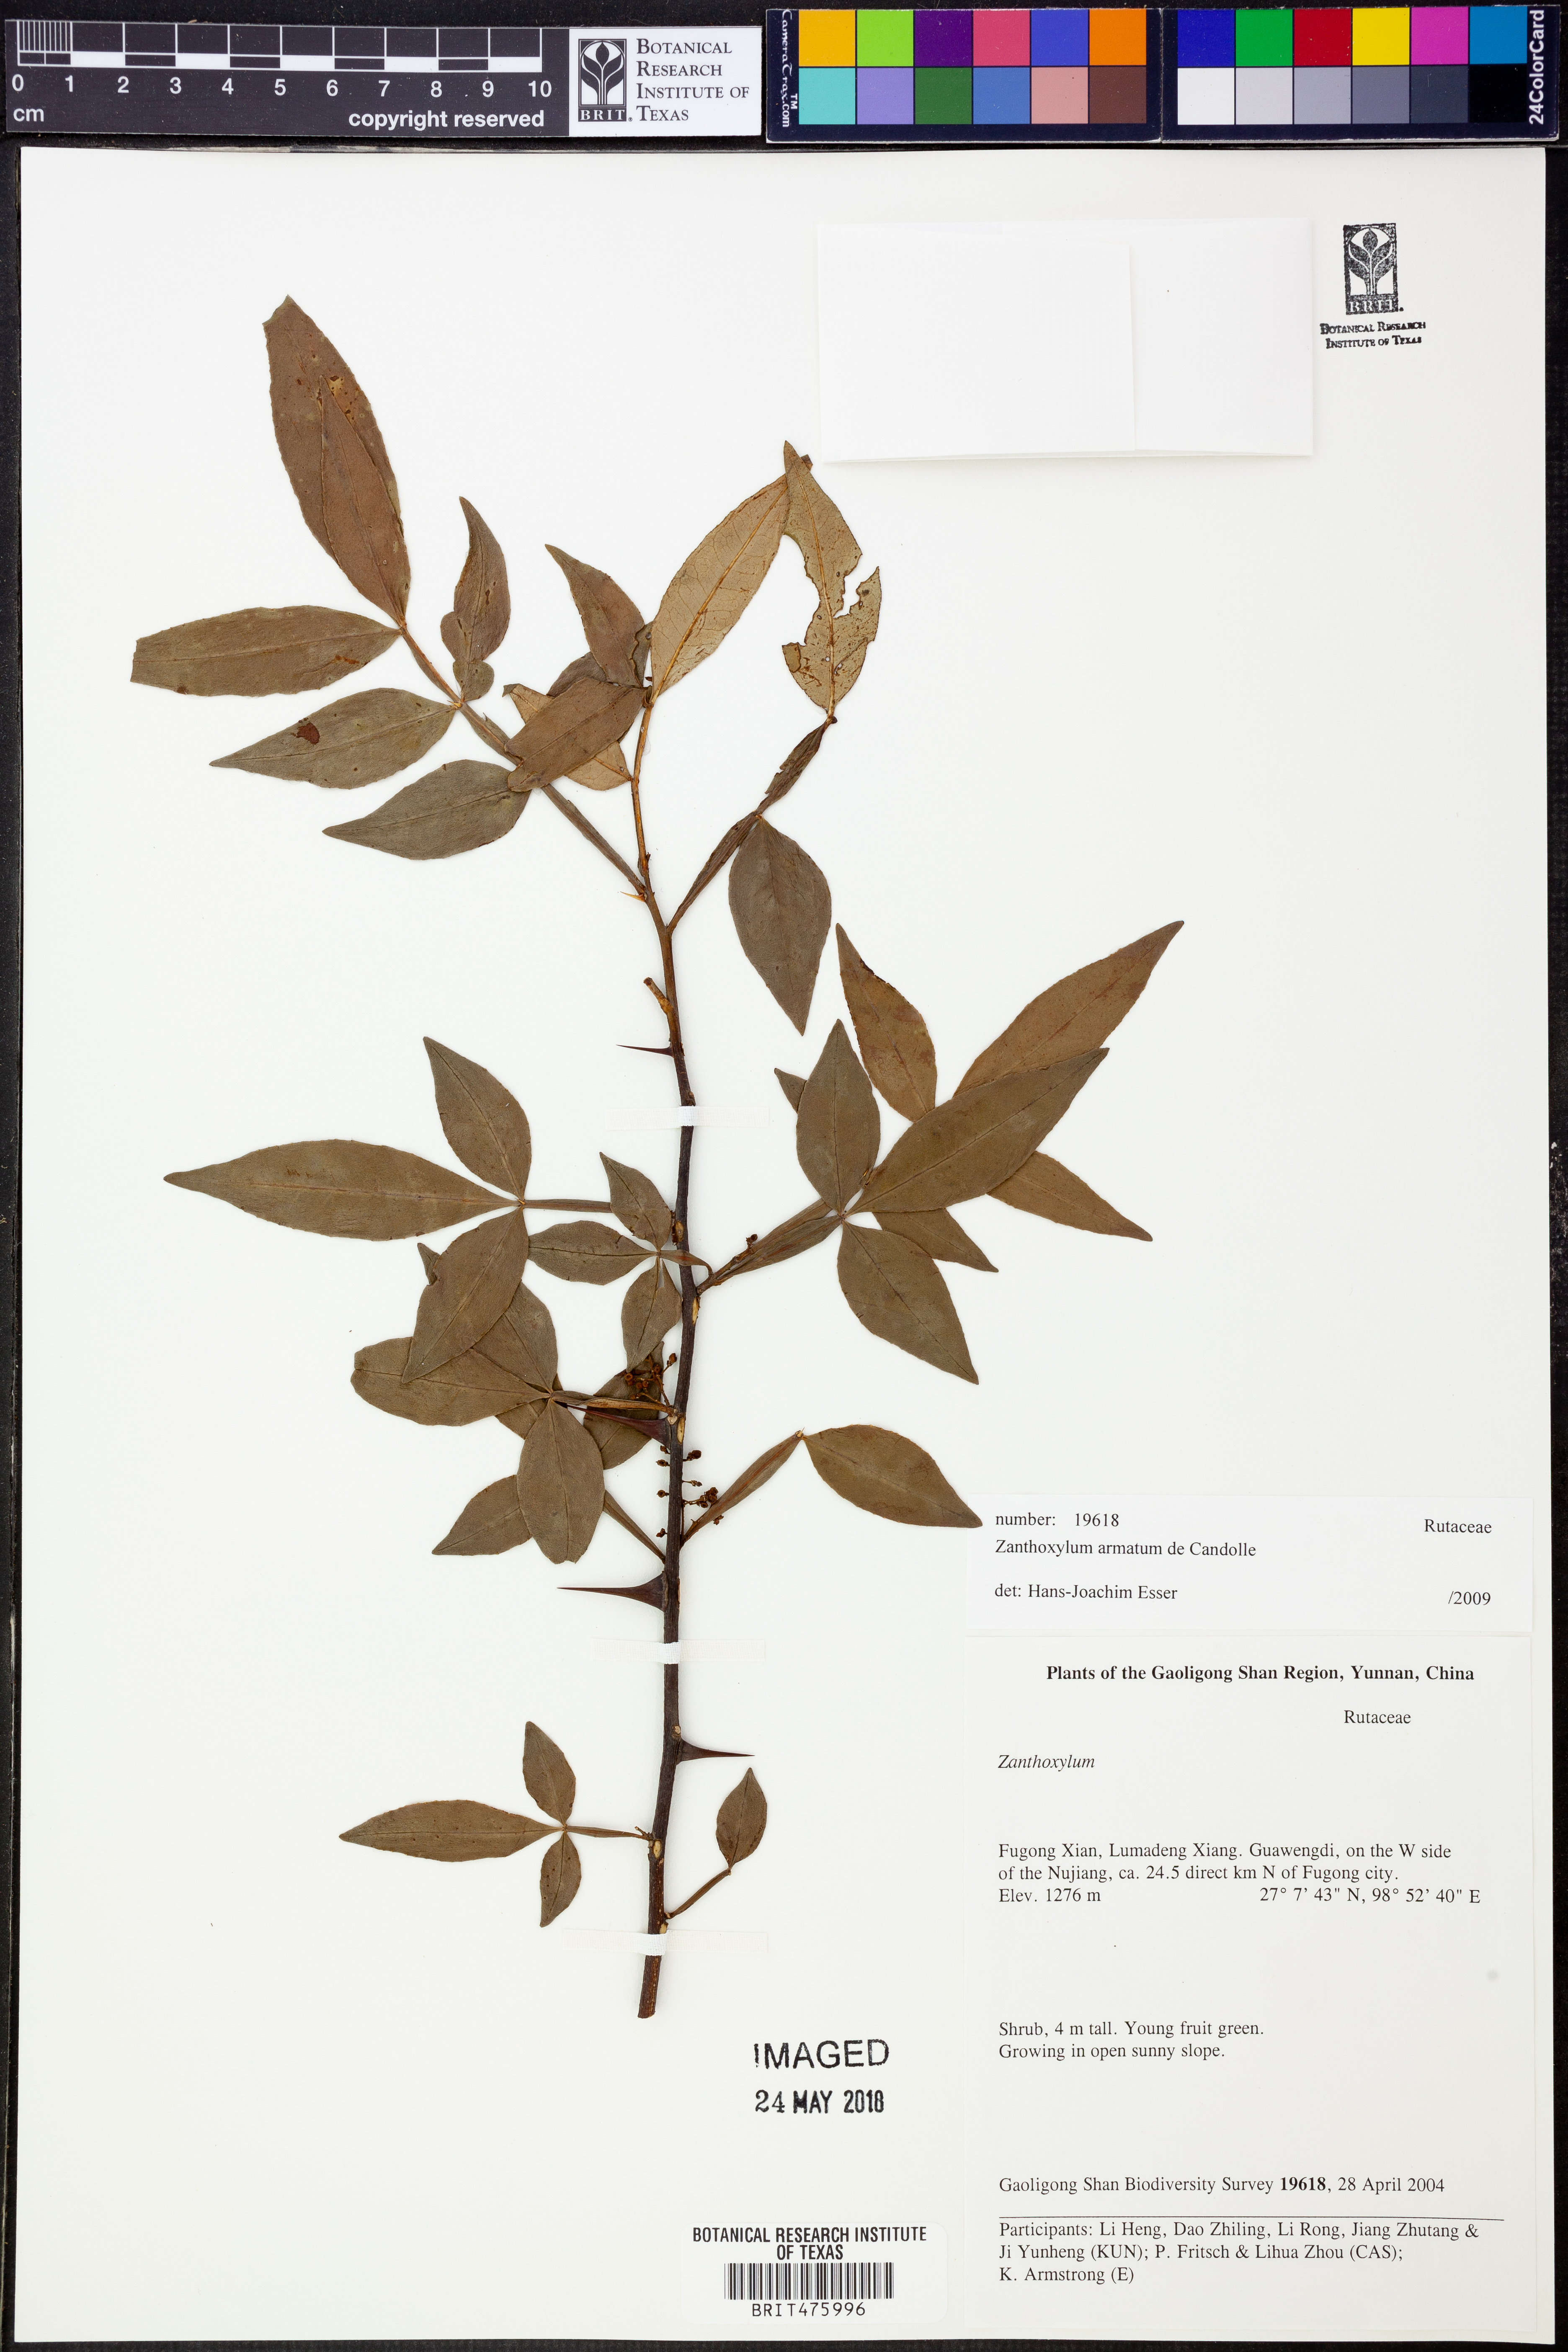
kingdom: Plantae
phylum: Tracheophyta
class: Magnoliopsida
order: Sapindales
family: Rutaceae
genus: Zanthoxylum
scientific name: Zanthoxylum armatum
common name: Winged prickly-ash
